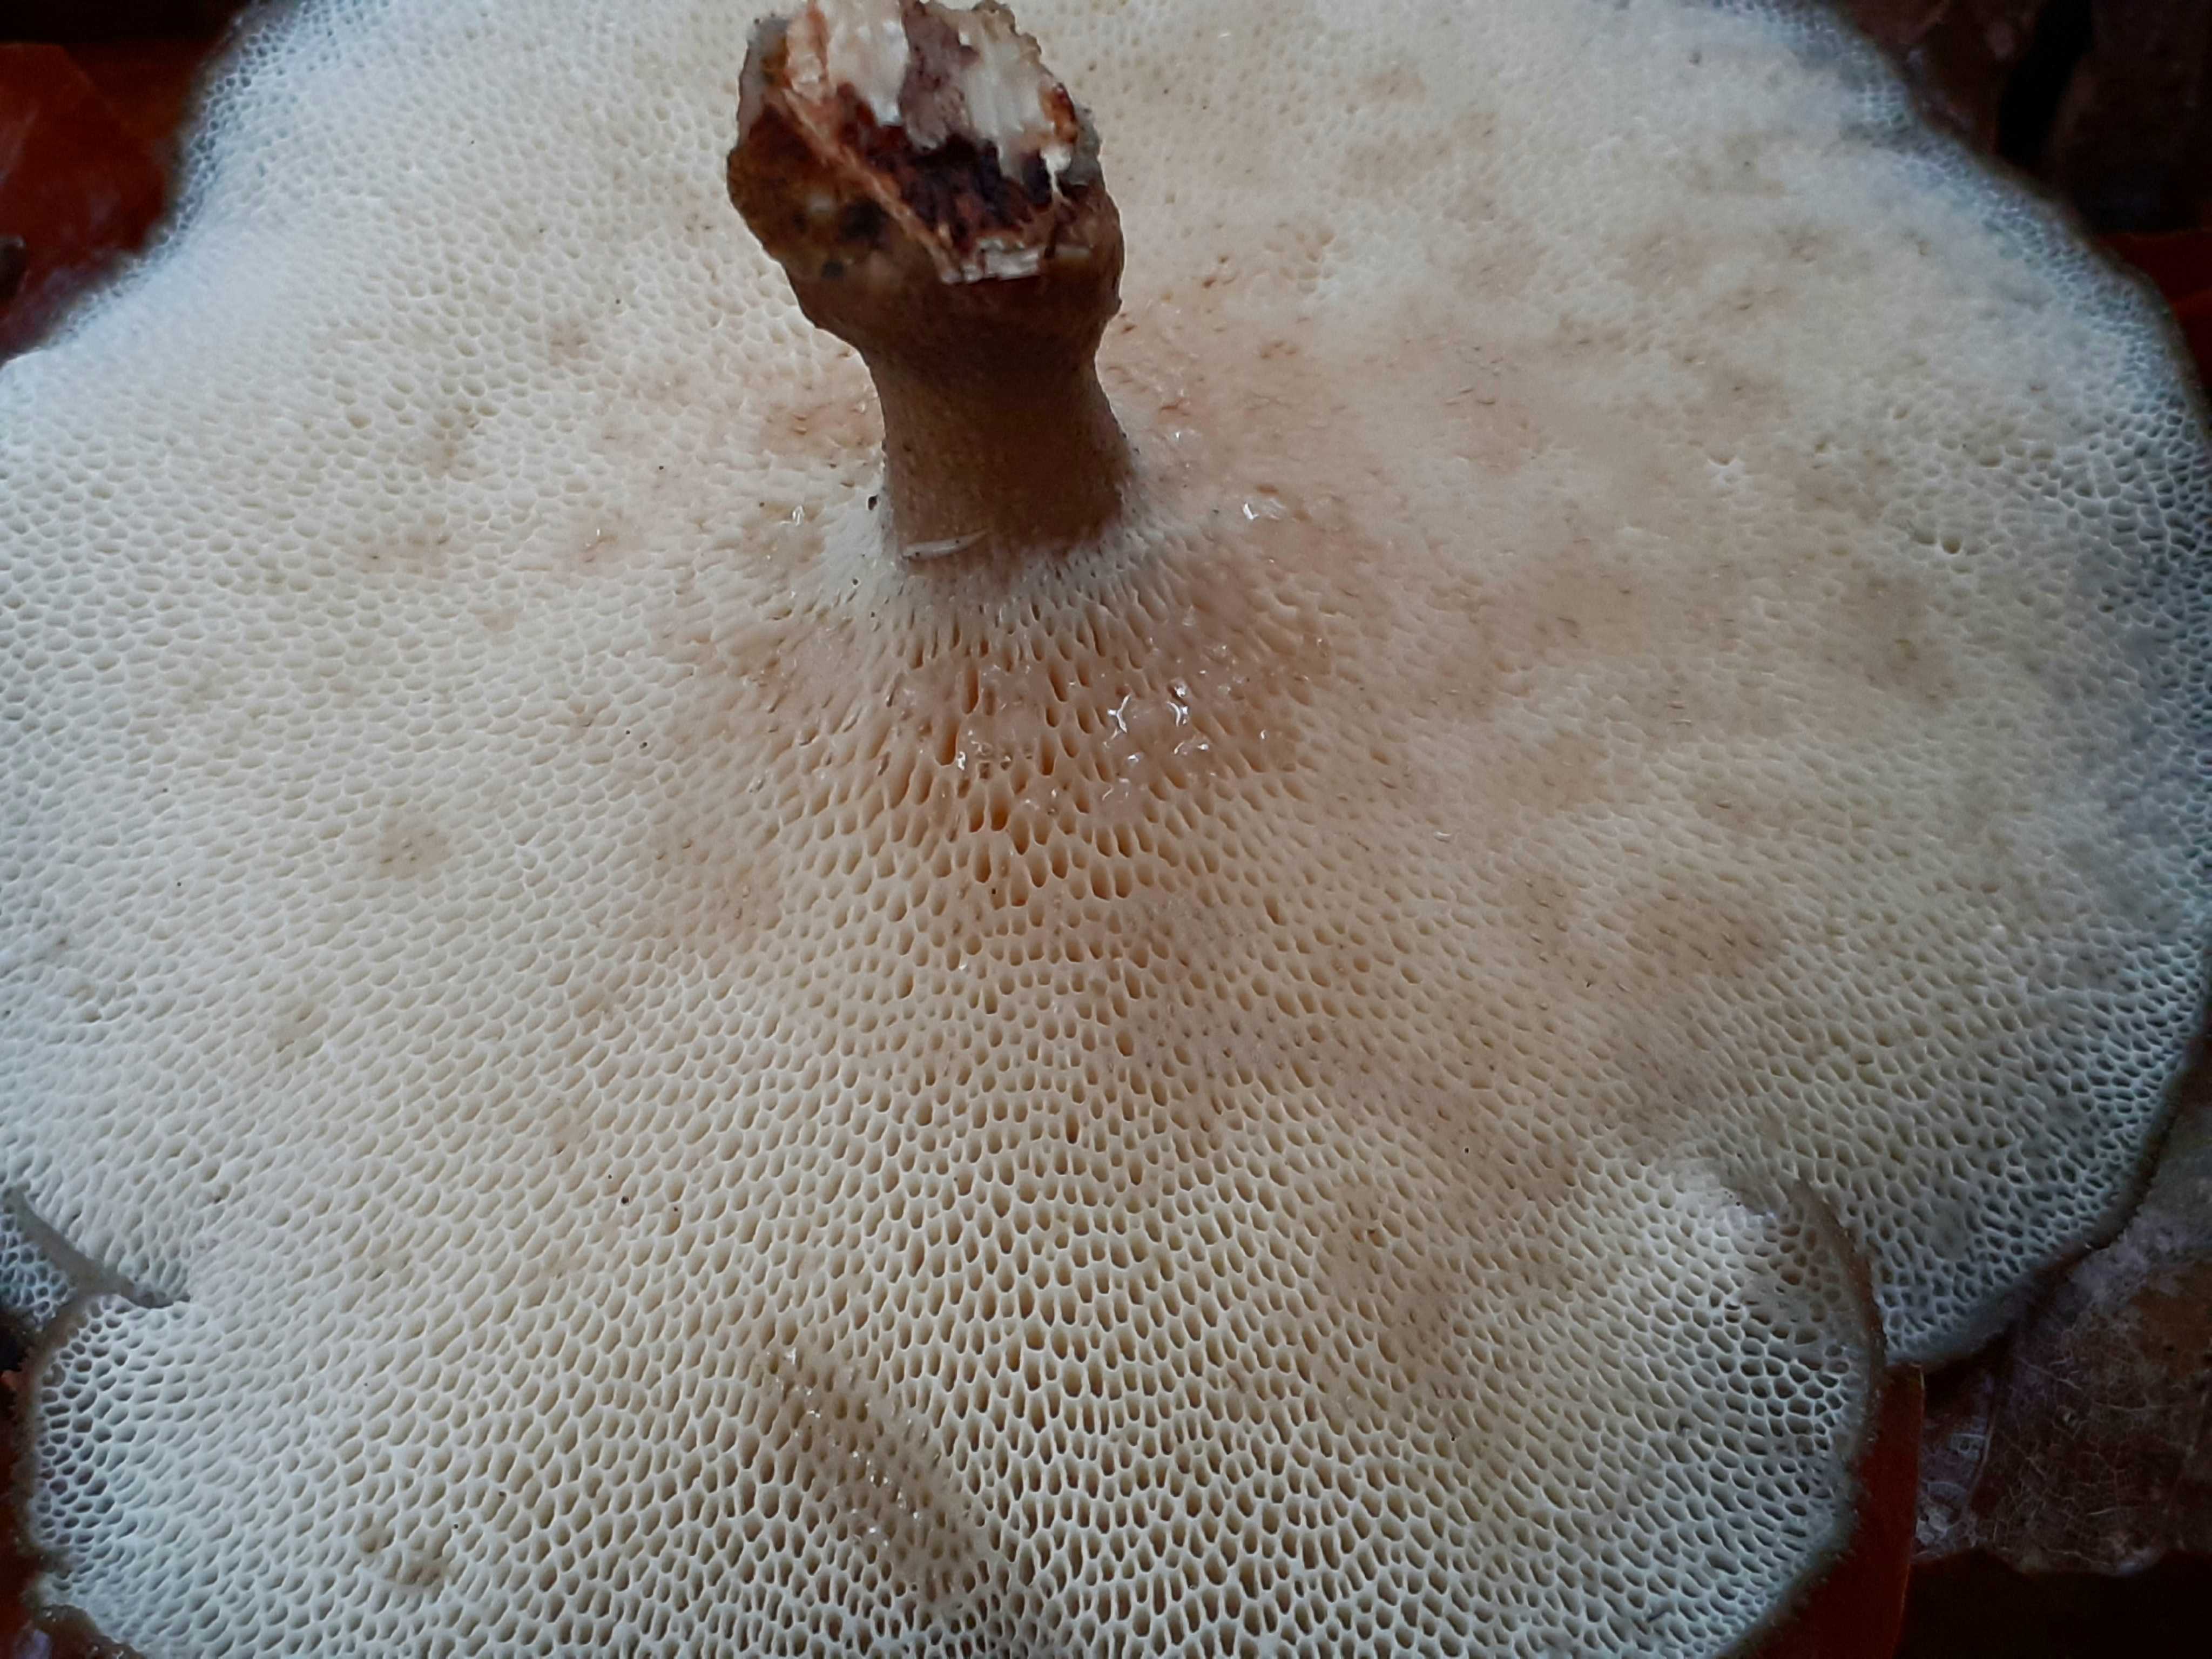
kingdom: Fungi
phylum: Basidiomycota
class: Agaricomycetes
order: Polyporales
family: Polyporaceae
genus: Lentinus
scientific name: Lentinus brumalis
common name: vinter-stilkporesvamp
